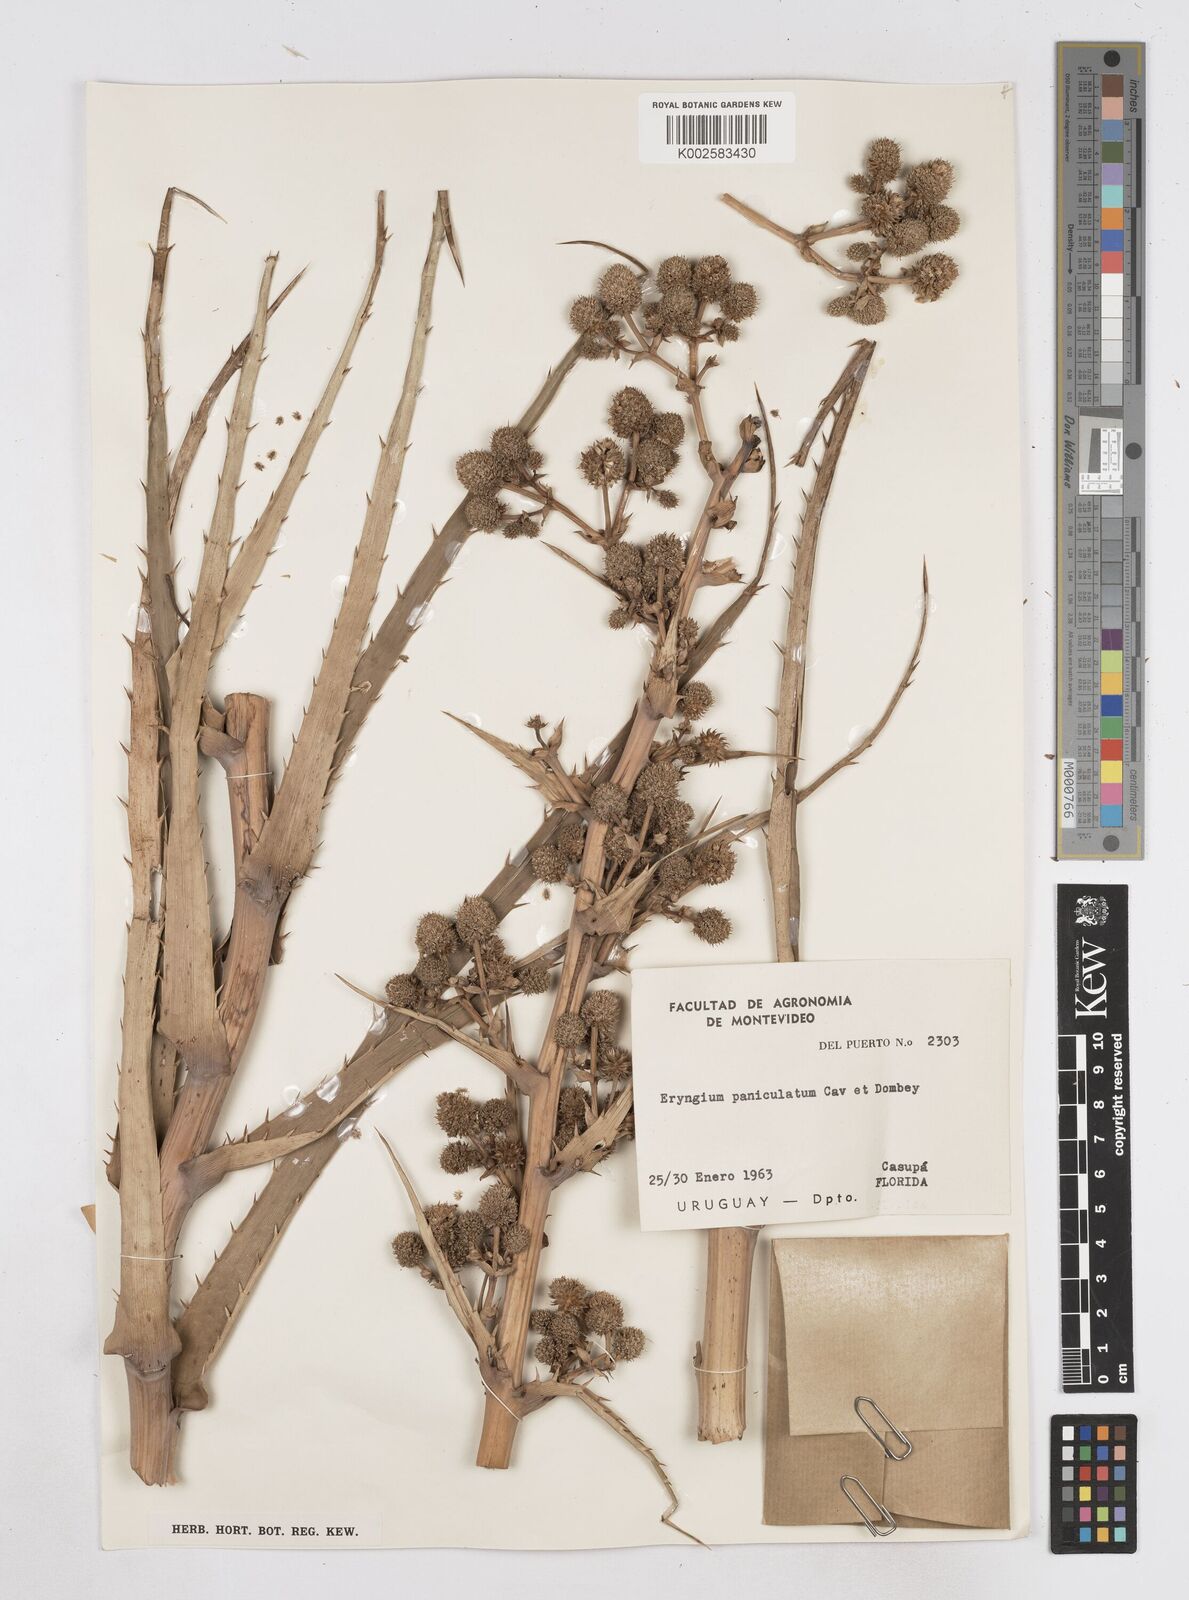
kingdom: Plantae
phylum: Tracheophyta
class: Magnoliopsida
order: Apiales
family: Apiaceae
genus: Eryngium
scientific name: Eryngium humboldtii
